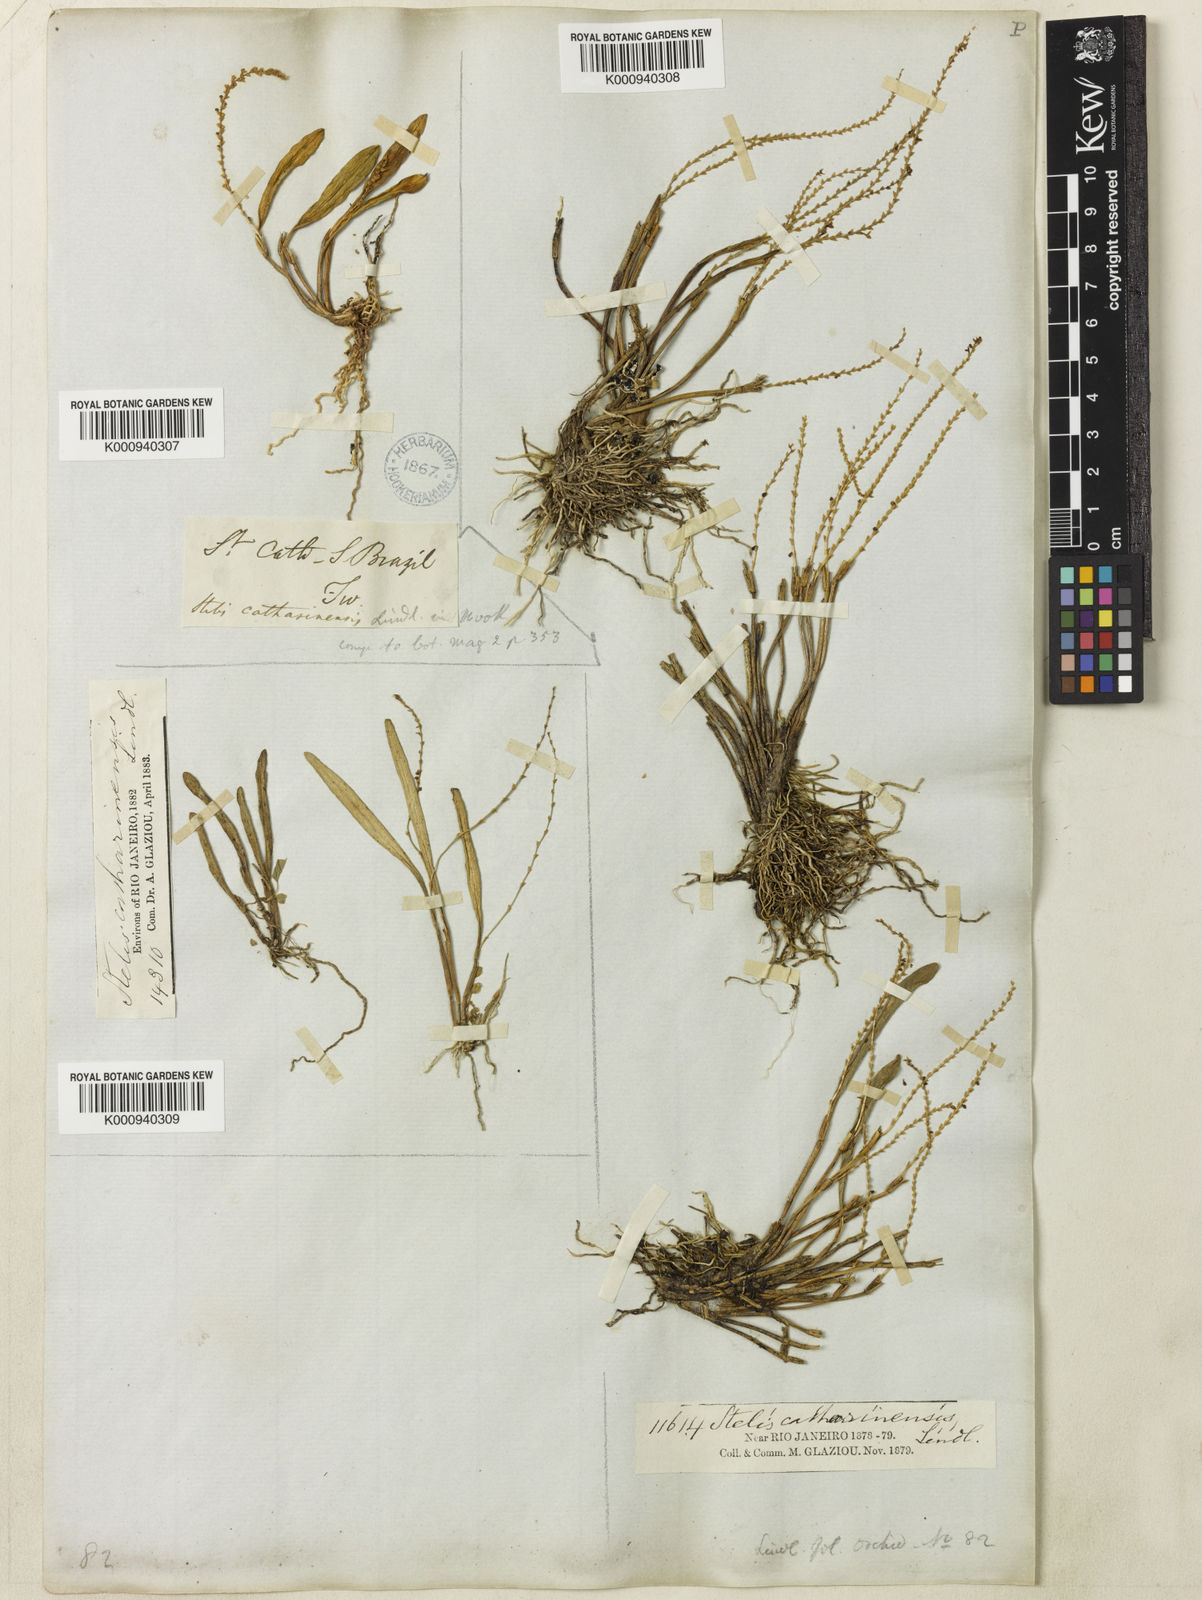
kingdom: Plantae
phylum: Tracheophyta
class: Liliopsida
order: Asparagales
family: Orchidaceae
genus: Stelis
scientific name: Stelis aprica
